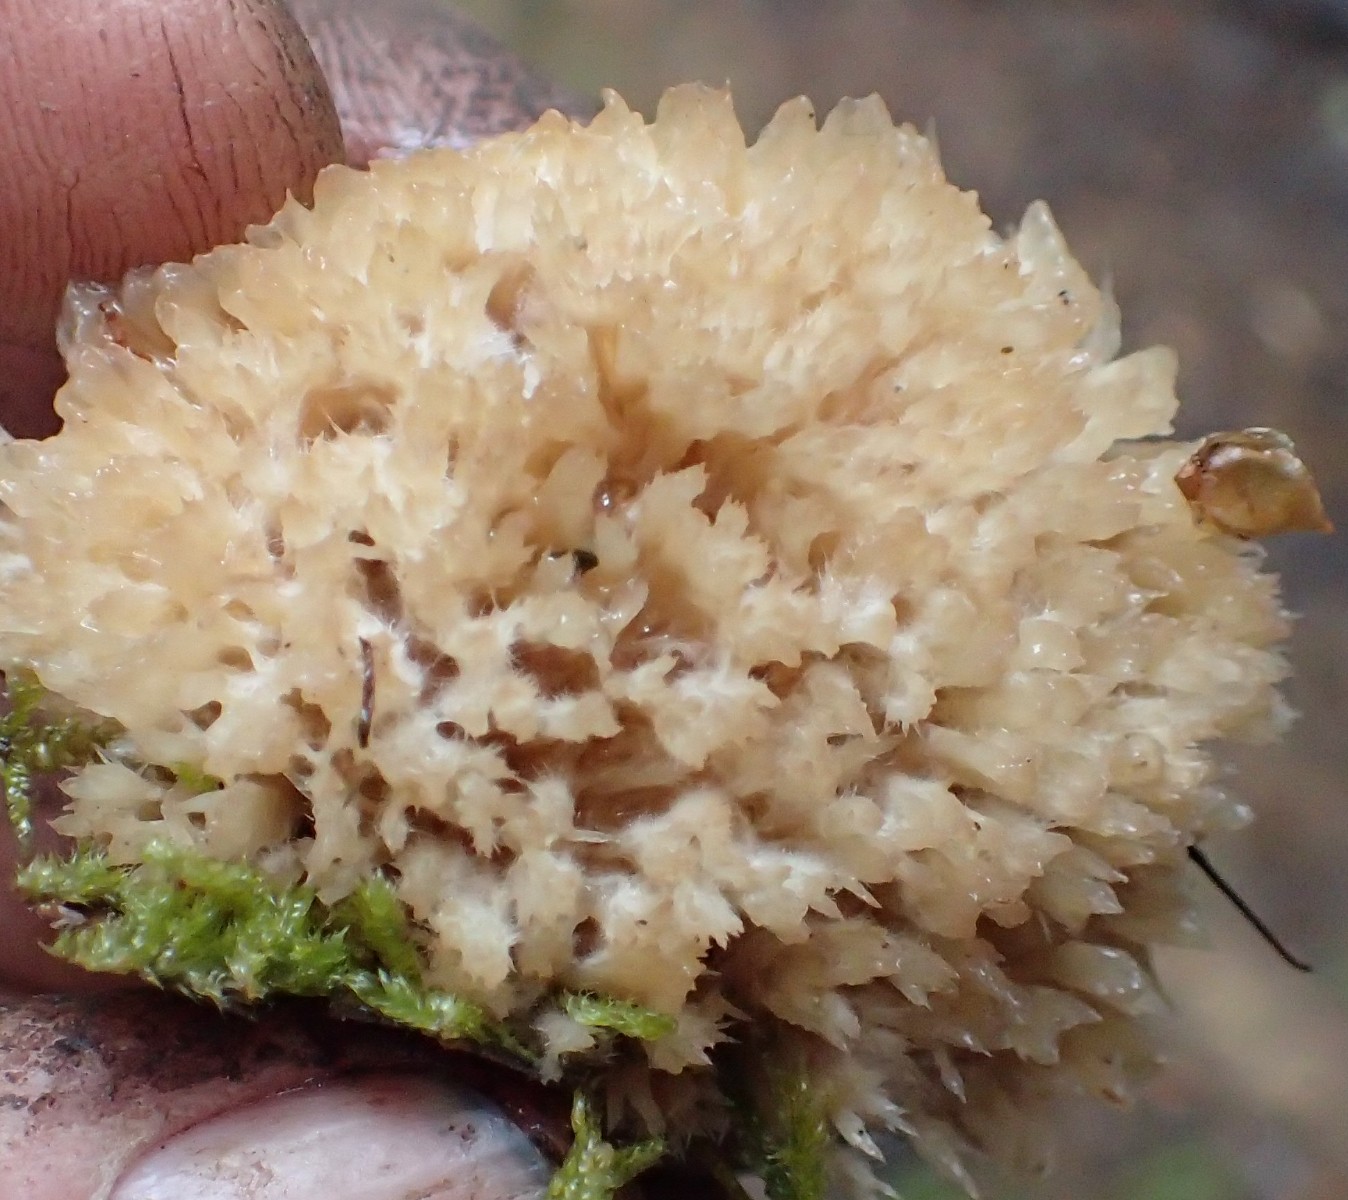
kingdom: Fungi
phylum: Basidiomycota
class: Agaricomycetes
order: Polyporales
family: Dacryobolaceae
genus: Postia
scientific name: Postia ptychogaster
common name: støvende kødporesvamp
